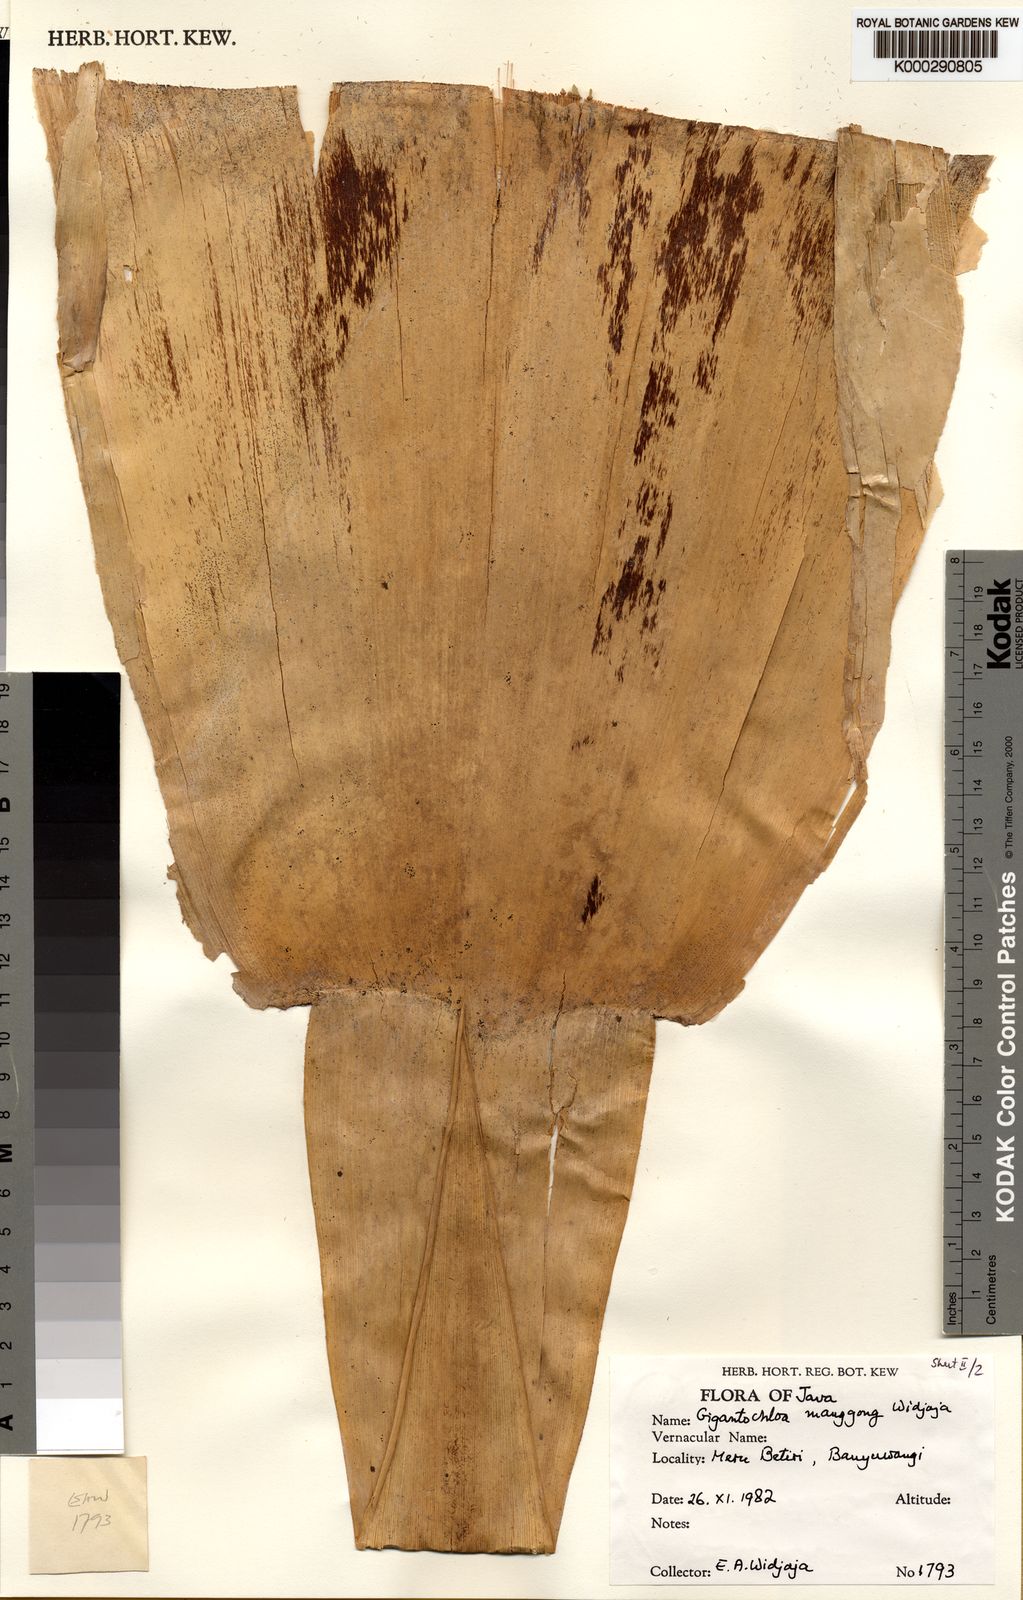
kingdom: Plantae
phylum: Tracheophyta
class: Liliopsida
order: Poales
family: Poaceae
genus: Gigantochloa
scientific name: Gigantochloa manggong
